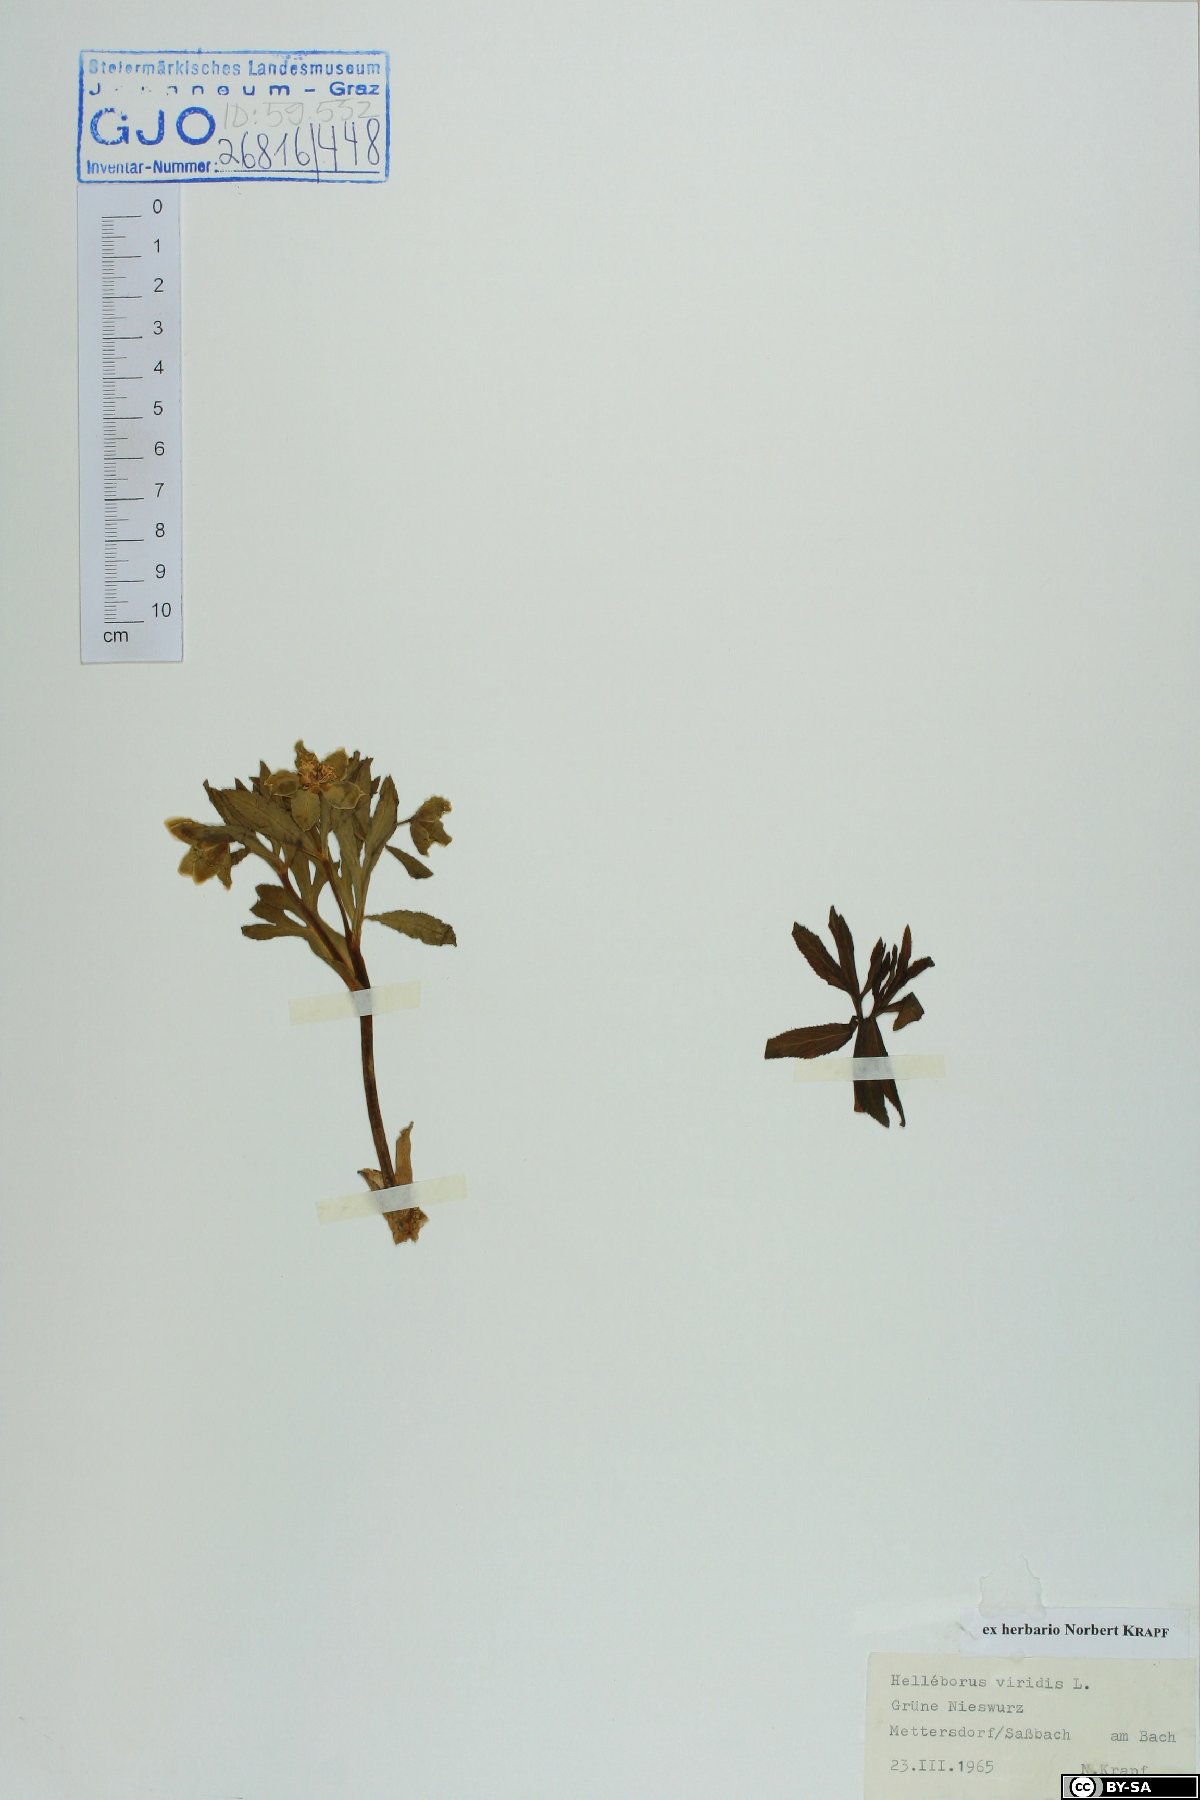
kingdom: Plantae
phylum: Tracheophyta
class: Magnoliopsida
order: Ranunculales
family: Ranunculaceae
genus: Helleborus
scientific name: Helleborus dumetorum
